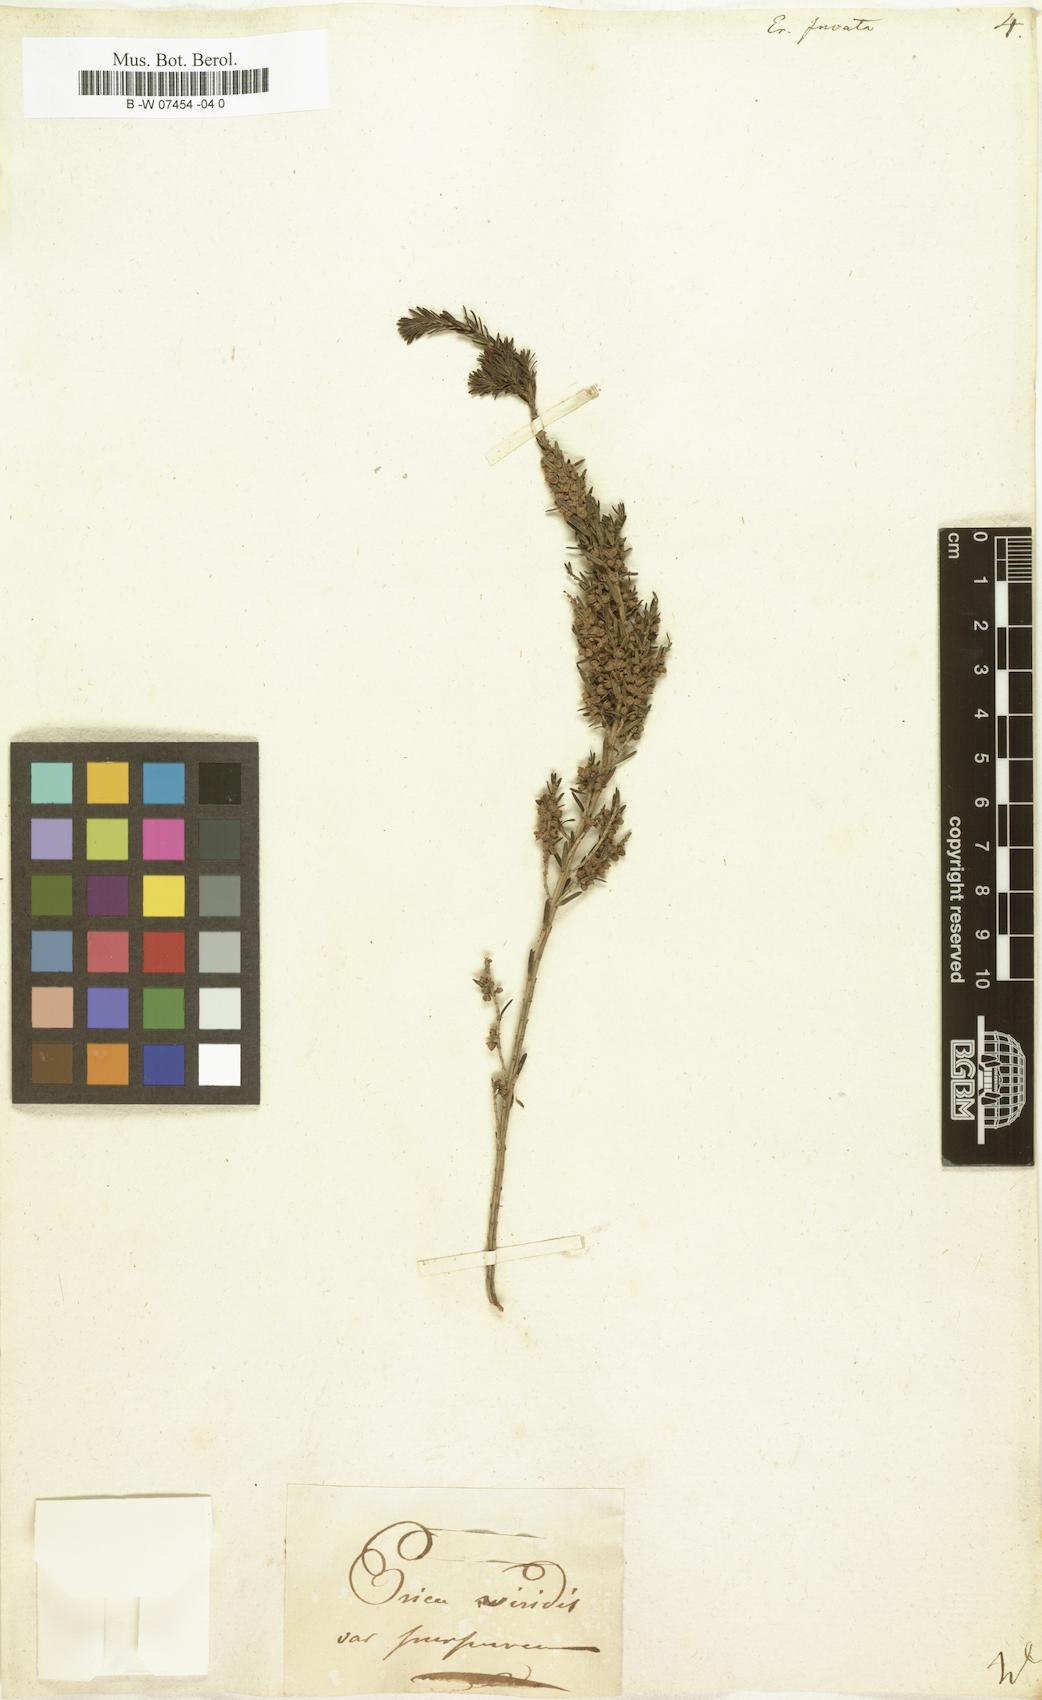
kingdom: Plantae
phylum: Tracheophyta
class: Magnoliopsida
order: Ericales
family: Ericaceae
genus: Erica
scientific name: Erica rubiginosa
